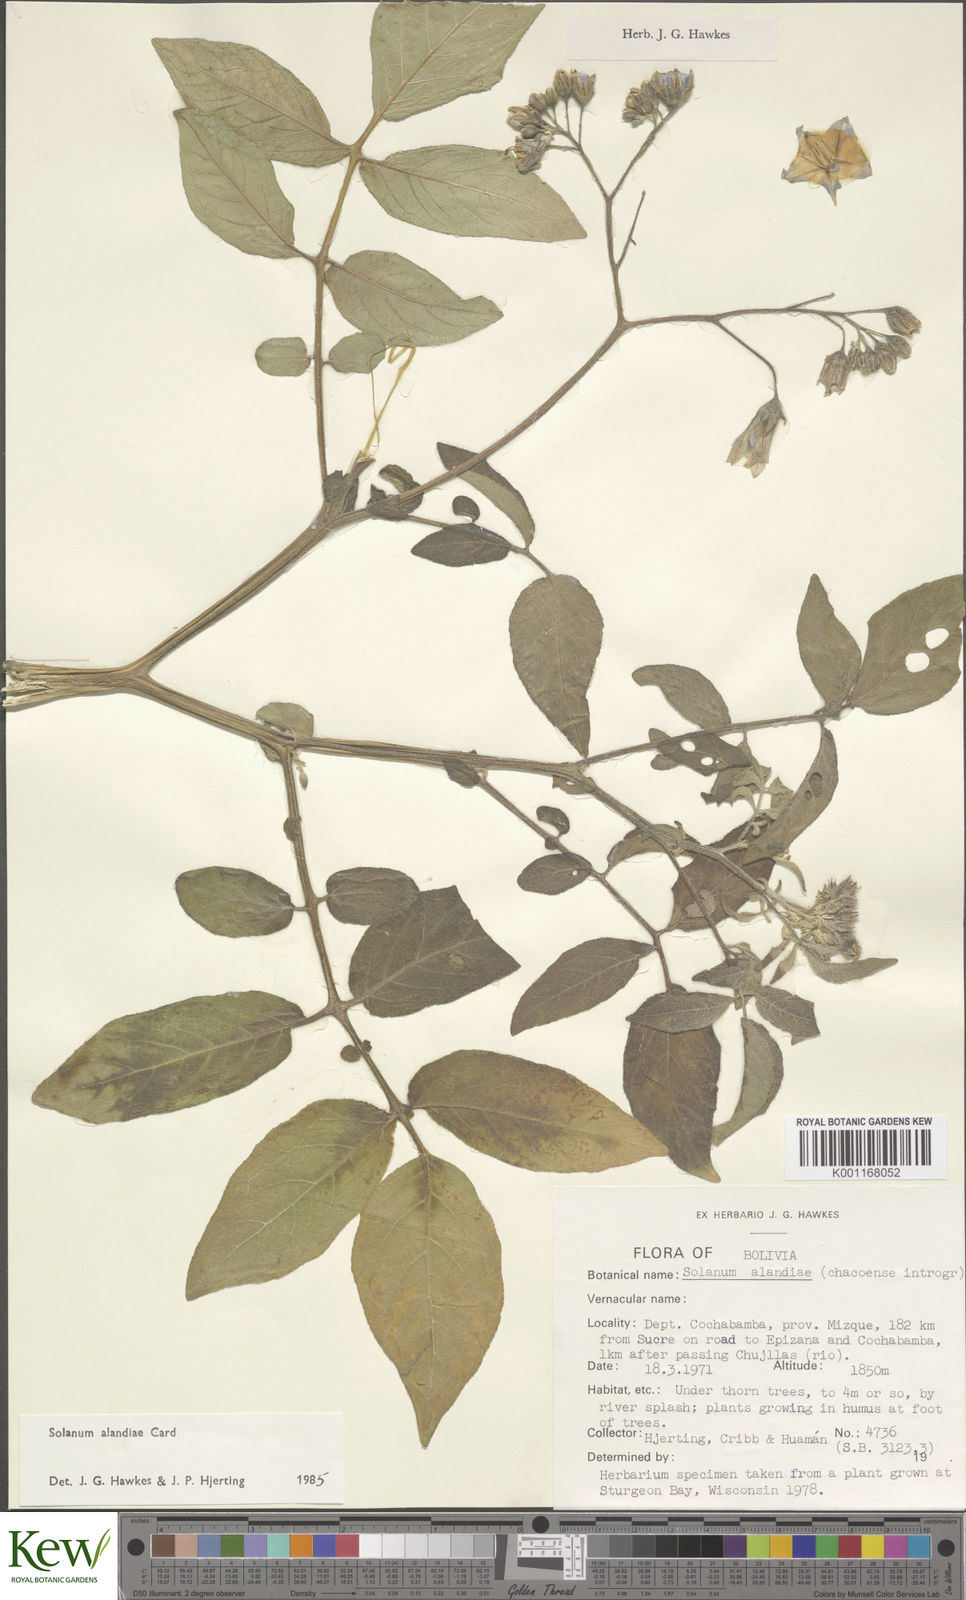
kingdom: Plantae
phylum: Tracheophyta
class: Magnoliopsida
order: Solanales
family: Solanaceae
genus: Solanum
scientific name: Solanum
